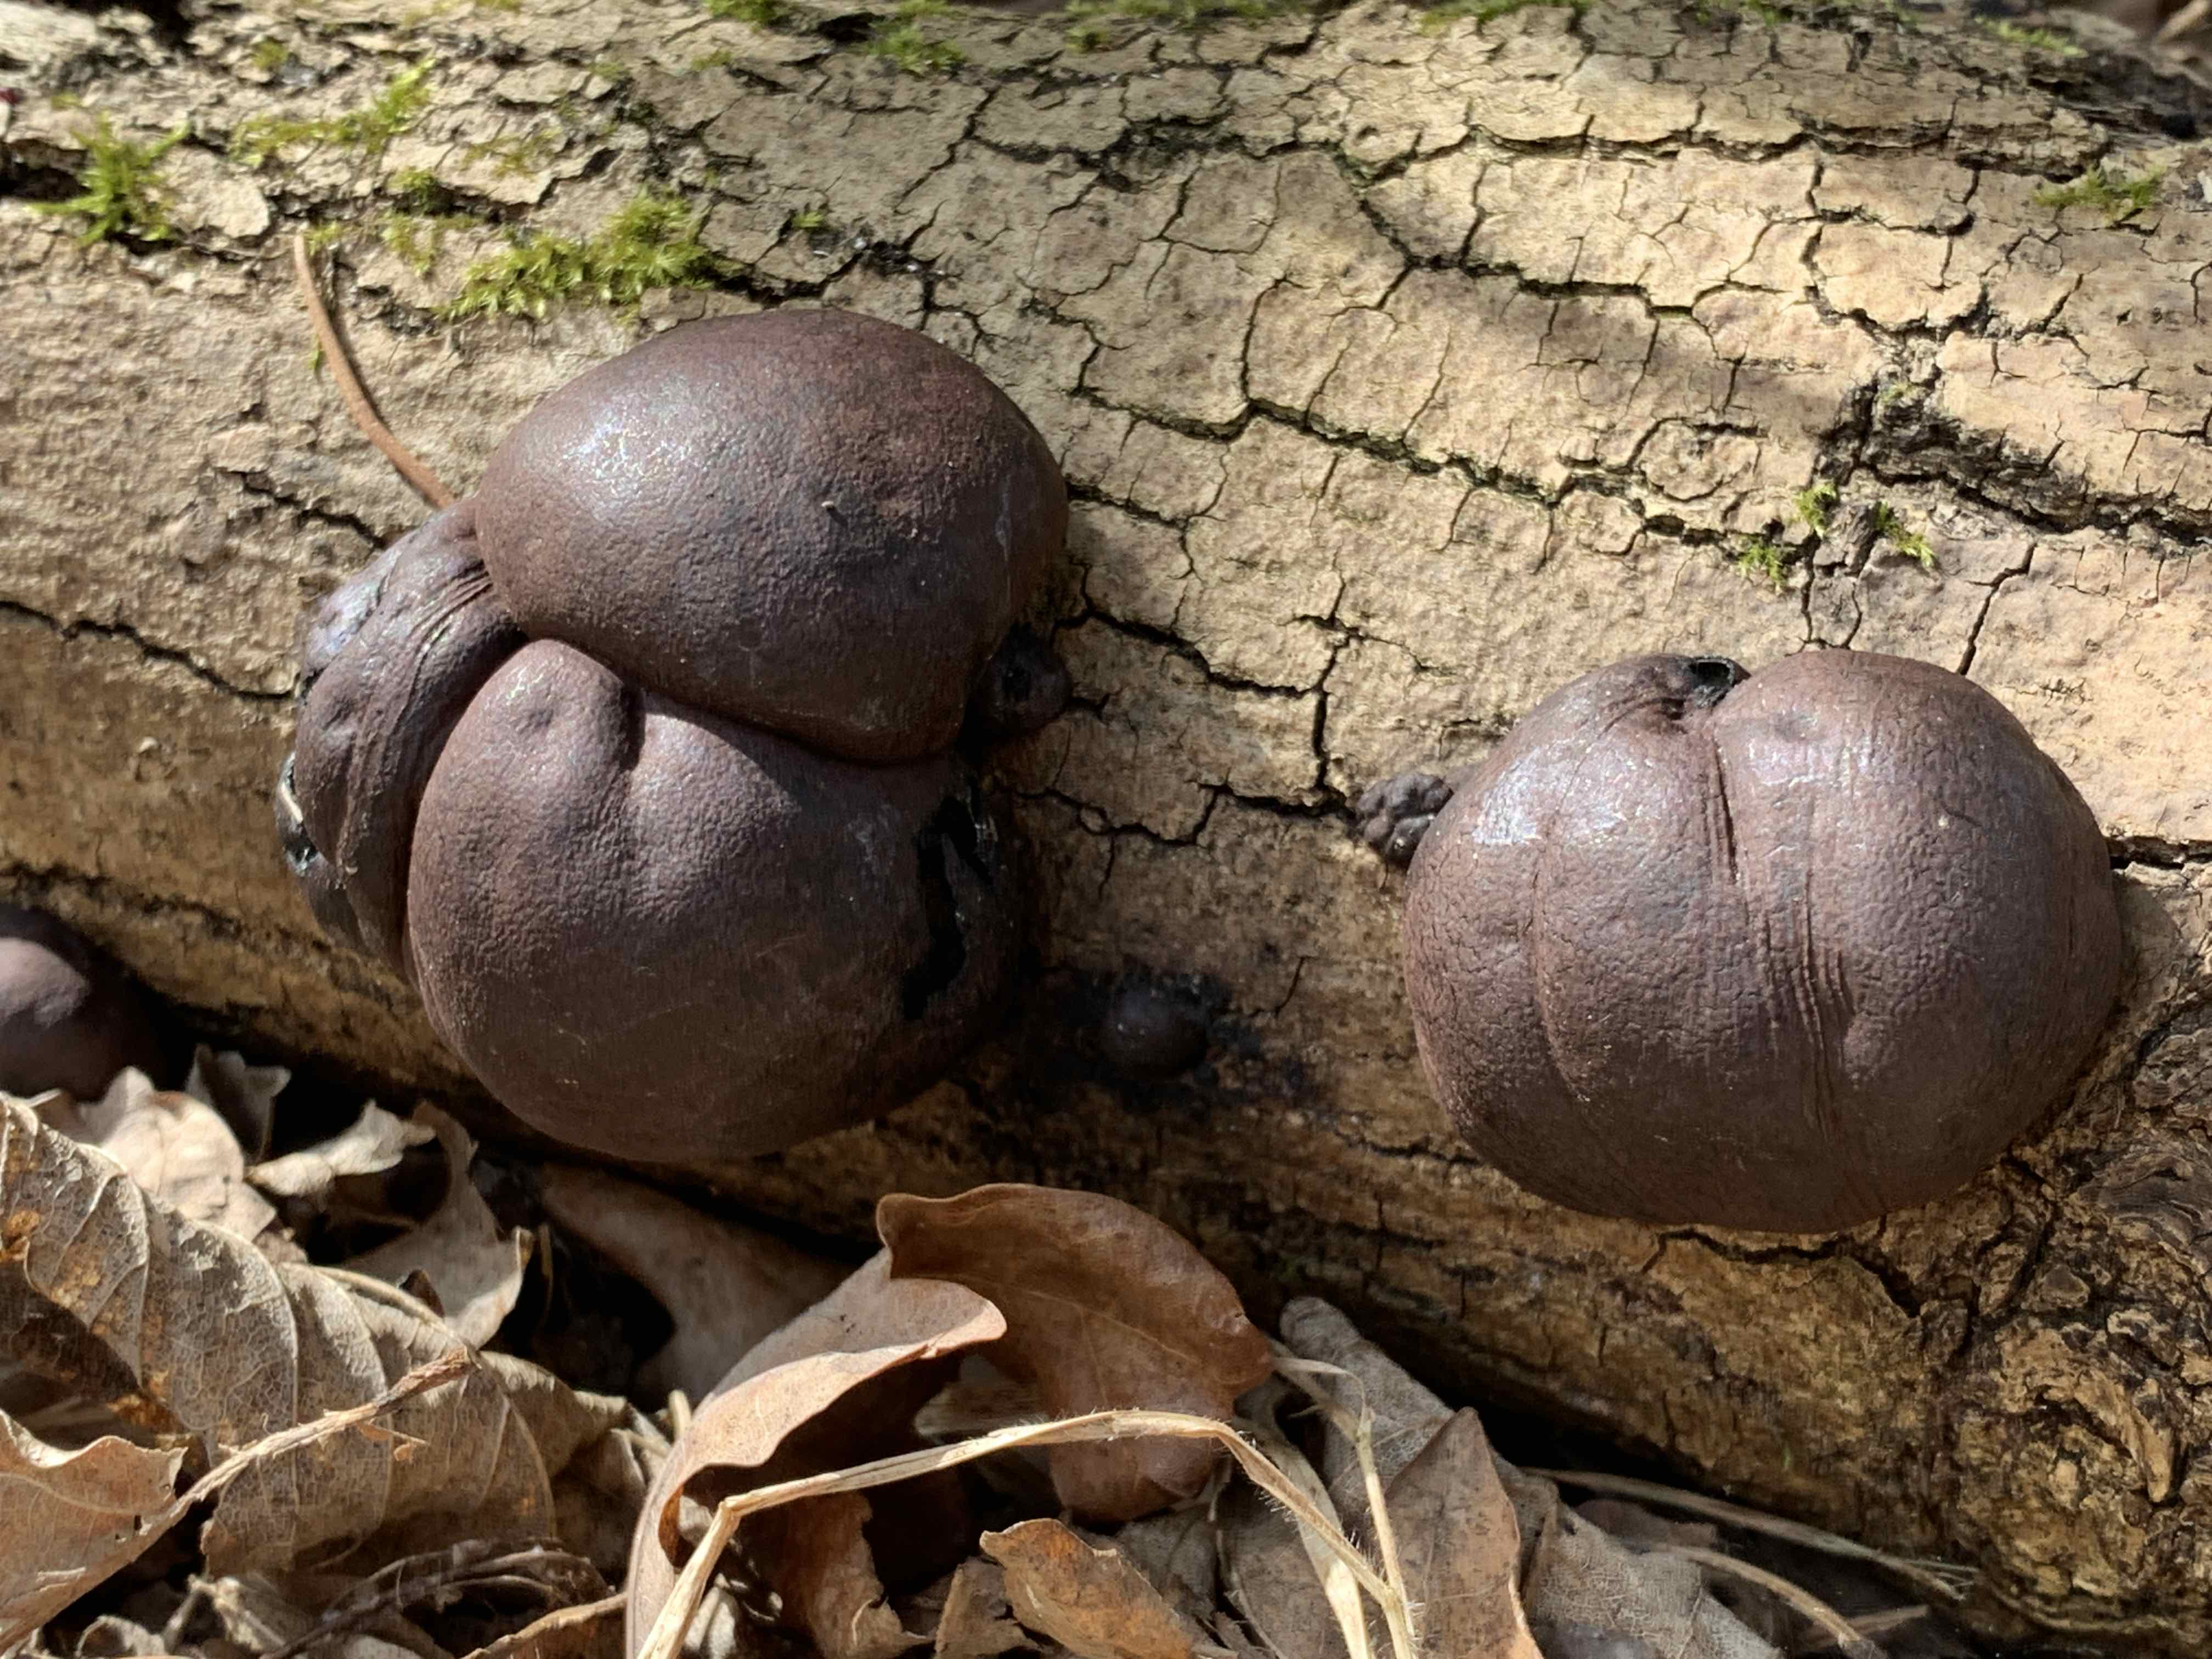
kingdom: Fungi
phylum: Ascomycota
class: Sordariomycetes
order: Xylariales
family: Hypoxylaceae
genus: Daldinia
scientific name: Daldinia concentrica
